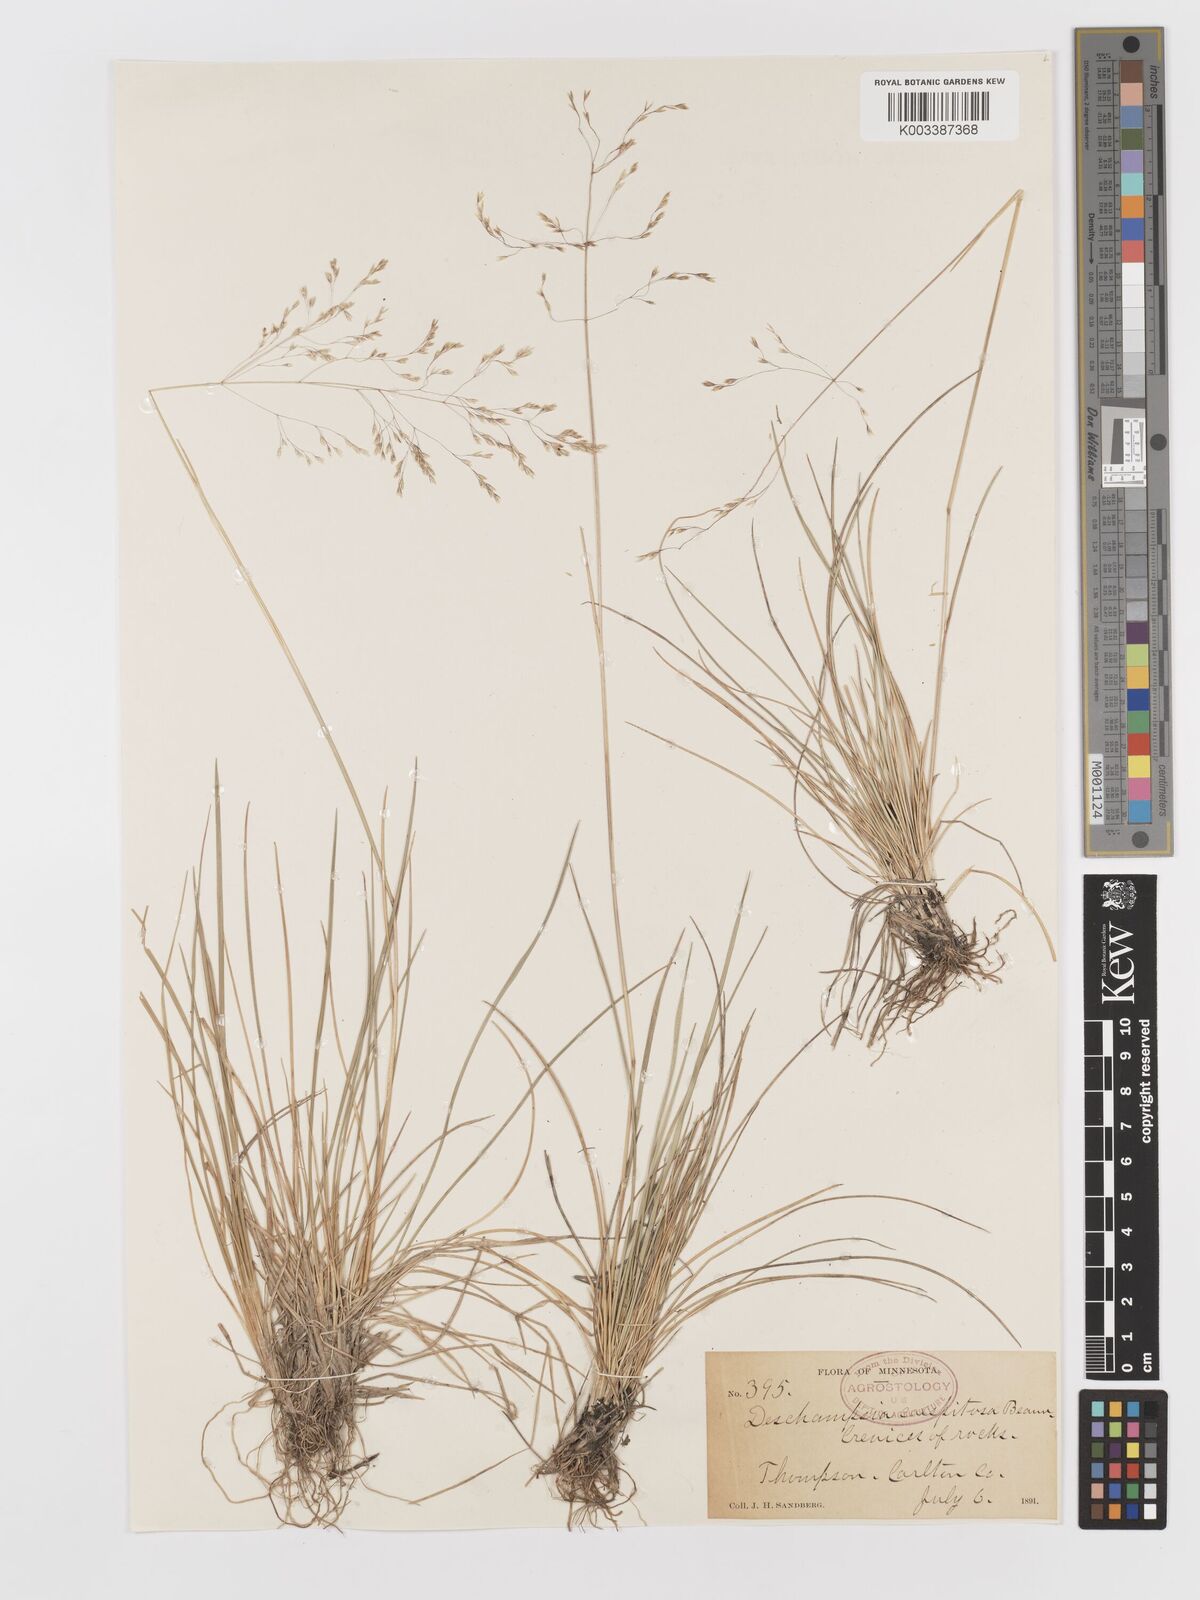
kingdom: Plantae
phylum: Tracheophyta
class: Liliopsida
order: Poales
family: Poaceae
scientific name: Poaceae
